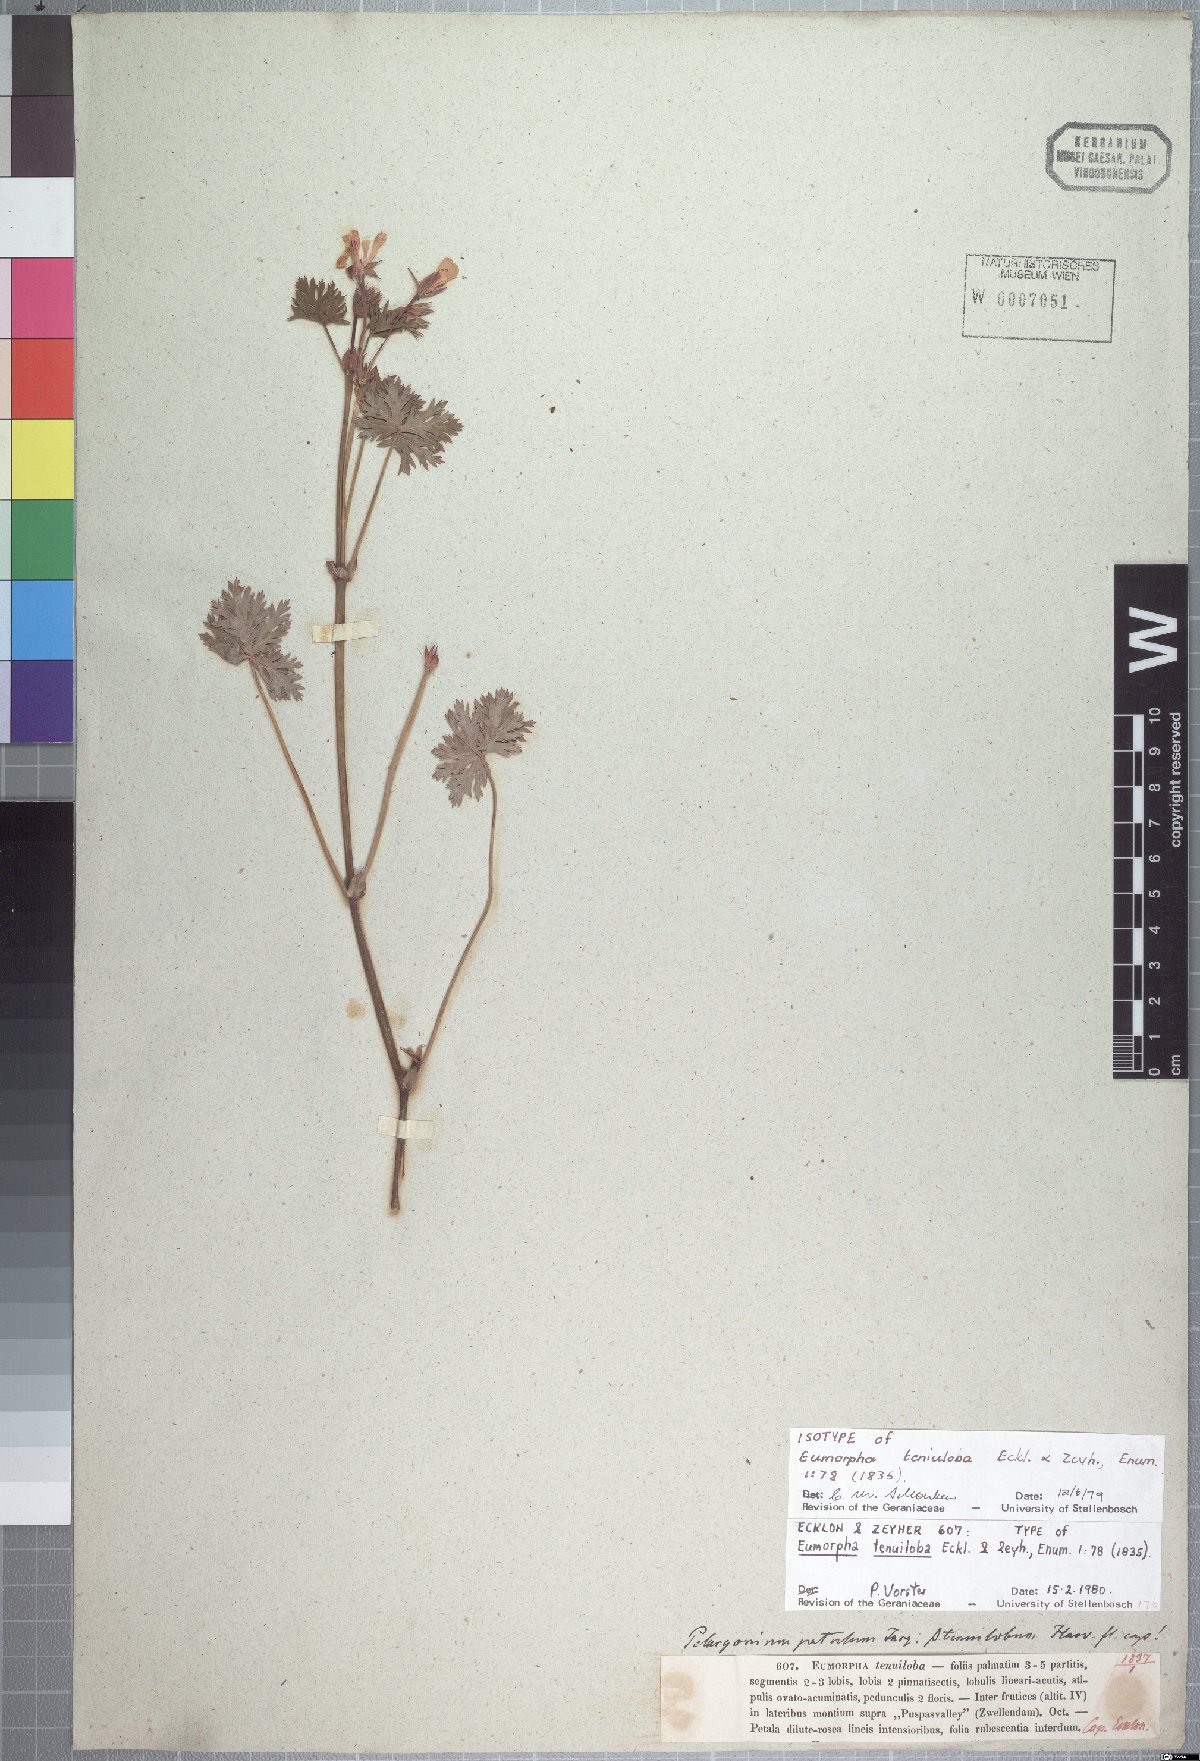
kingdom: Plantae
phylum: Tracheophyta
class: Magnoliopsida
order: Geraniales
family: Geraniaceae
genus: Pelargonium
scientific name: Pelargonium patulum
